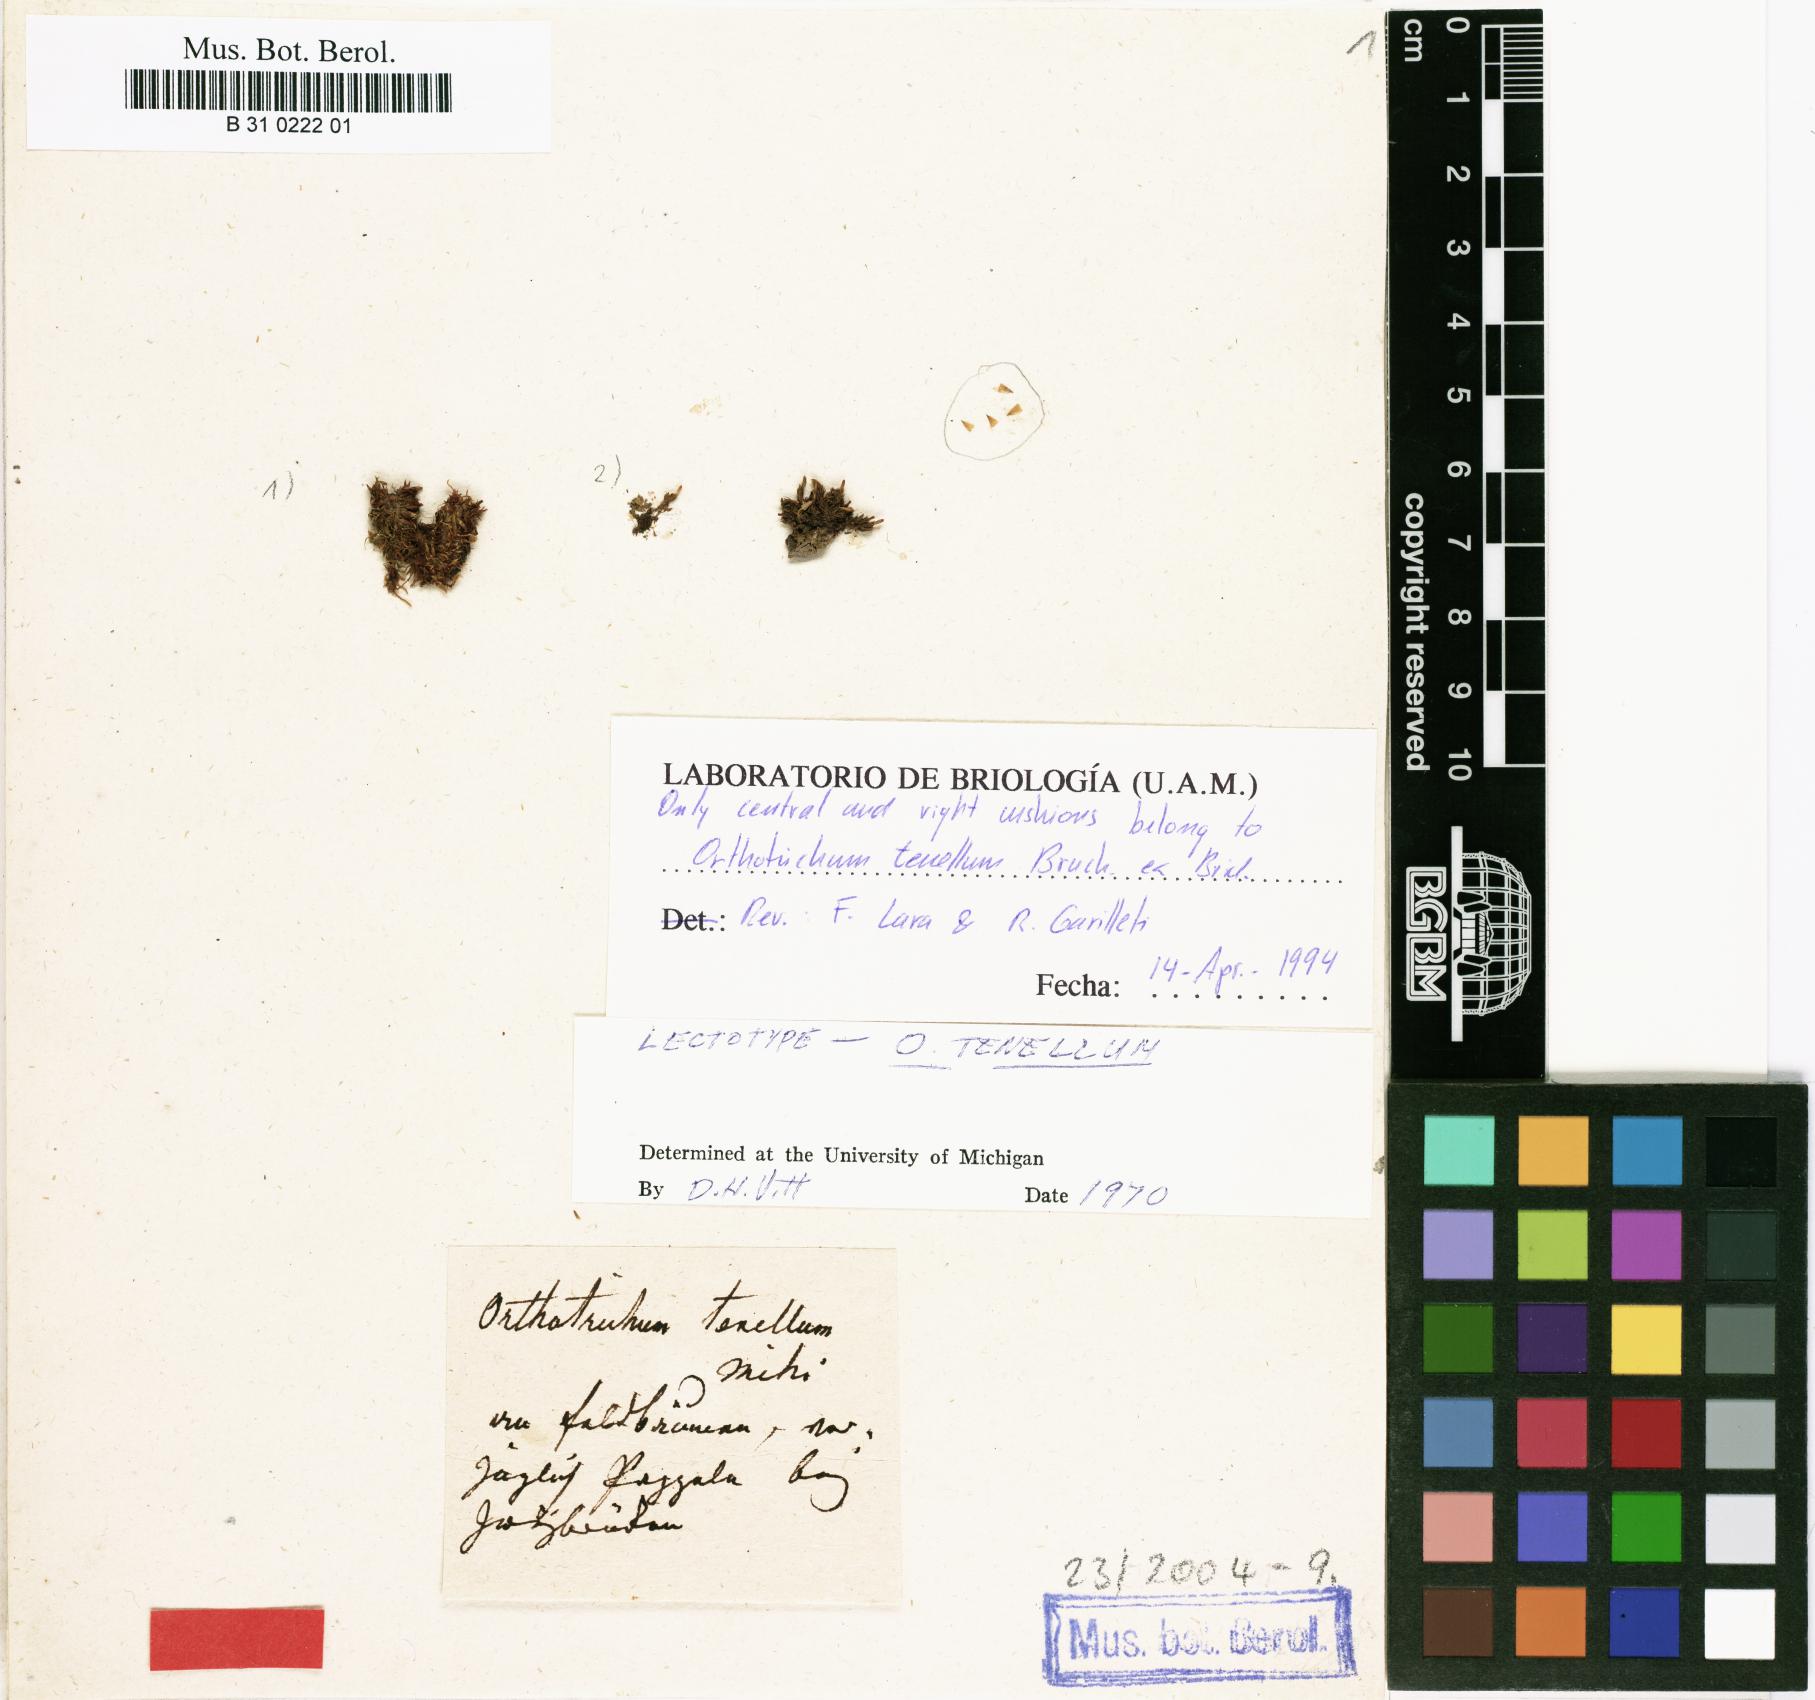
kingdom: Plantae
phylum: Bryophyta
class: Bryopsida
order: Orthotrichales
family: Orthotrichaceae
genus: Orthotrichum
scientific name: Orthotrichum tenellum
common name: Slender bristle-moss
